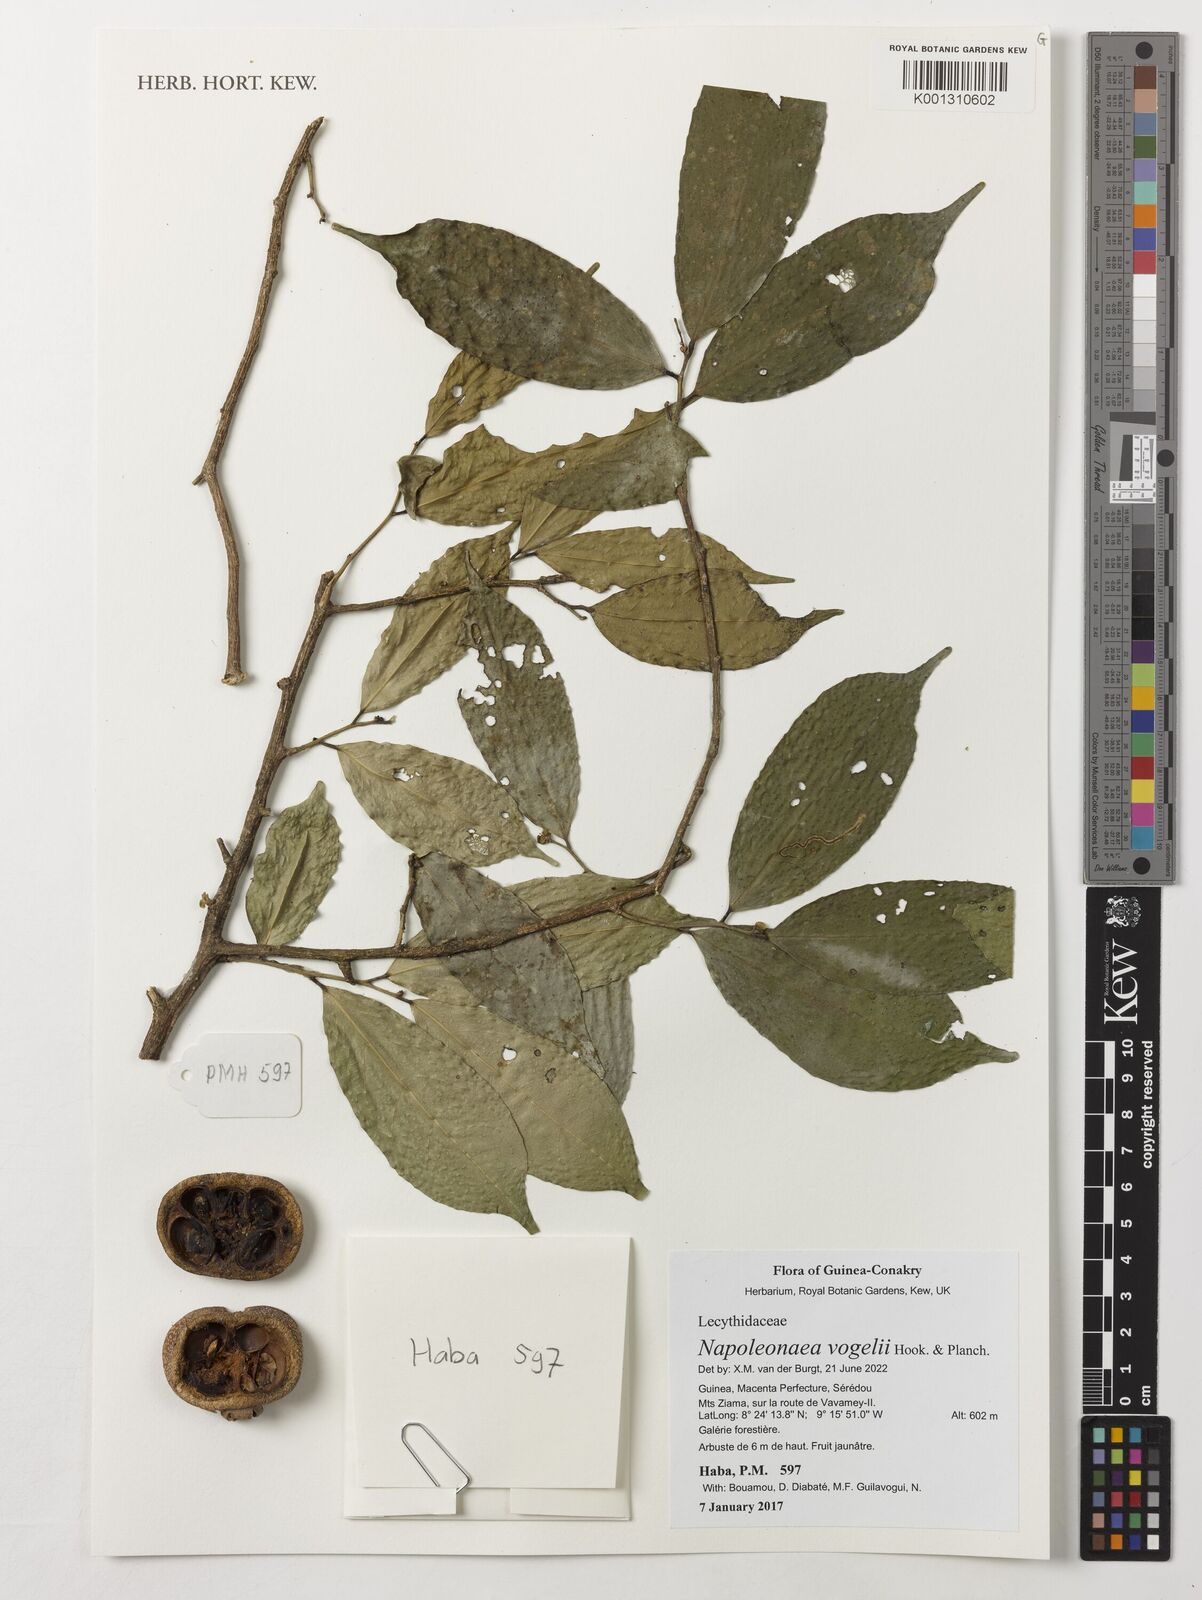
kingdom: Plantae
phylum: Tracheophyta
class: Magnoliopsida
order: Ericales
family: Lecythidaceae
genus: Napoleonaea
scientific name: Napoleonaea vogelii
